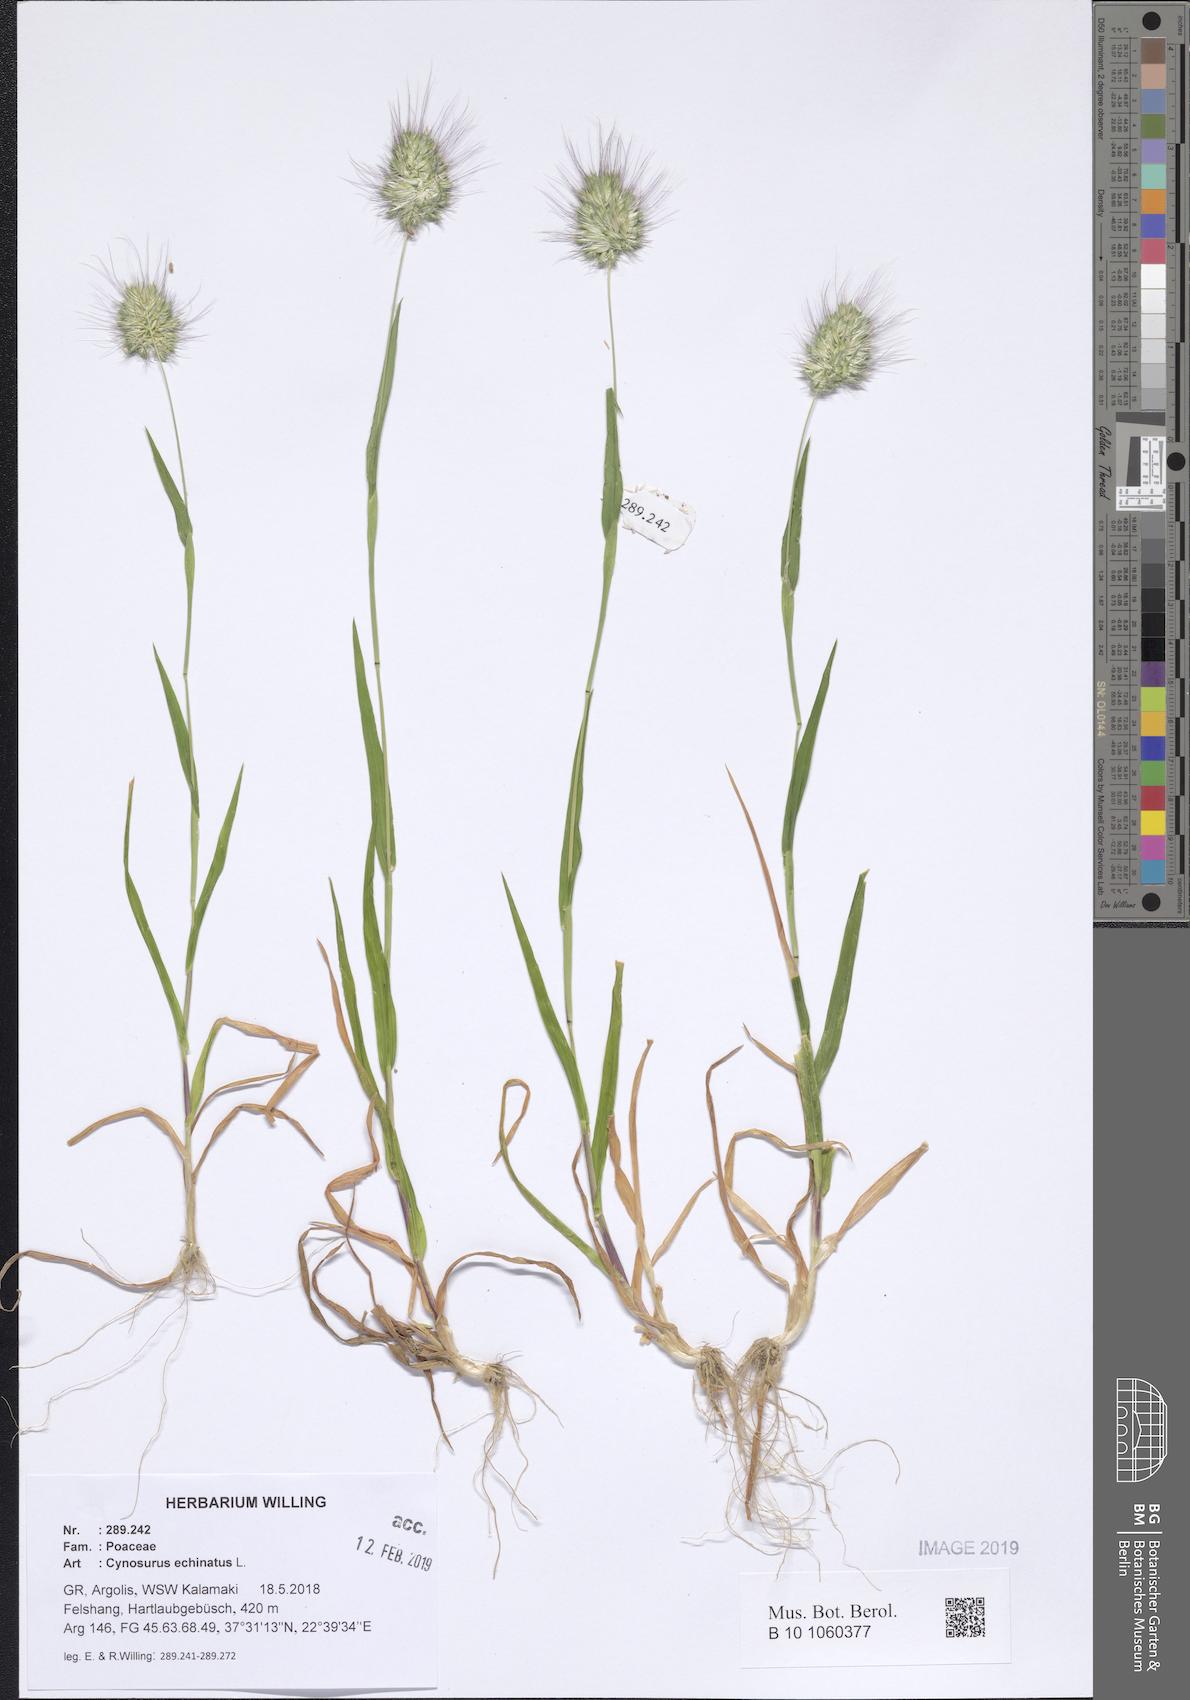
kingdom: Plantae
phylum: Tracheophyta
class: Liliopsida
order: Poales
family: Poaceae
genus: Cynosurus
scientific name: Cynosurus echinatus
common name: Rough dog's-tail
